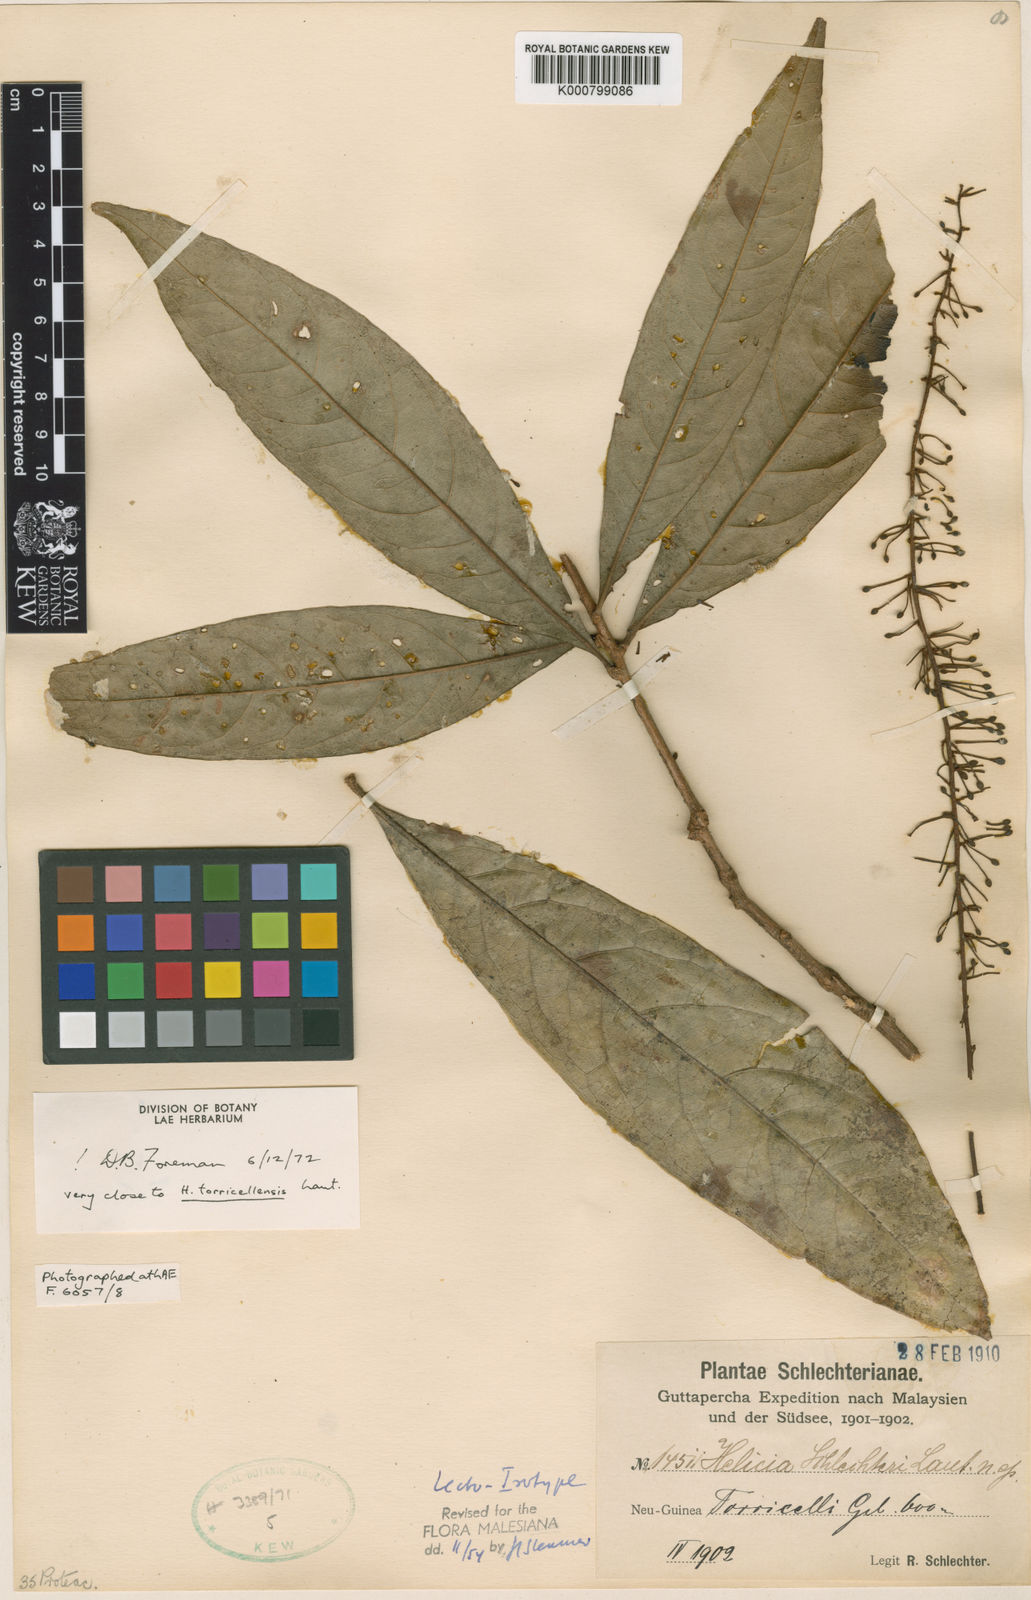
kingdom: Plantae
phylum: Tracheophyta
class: Magnoliopsida
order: Proteales
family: Proteaceae
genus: Helicia
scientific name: Helicia schlechteri
